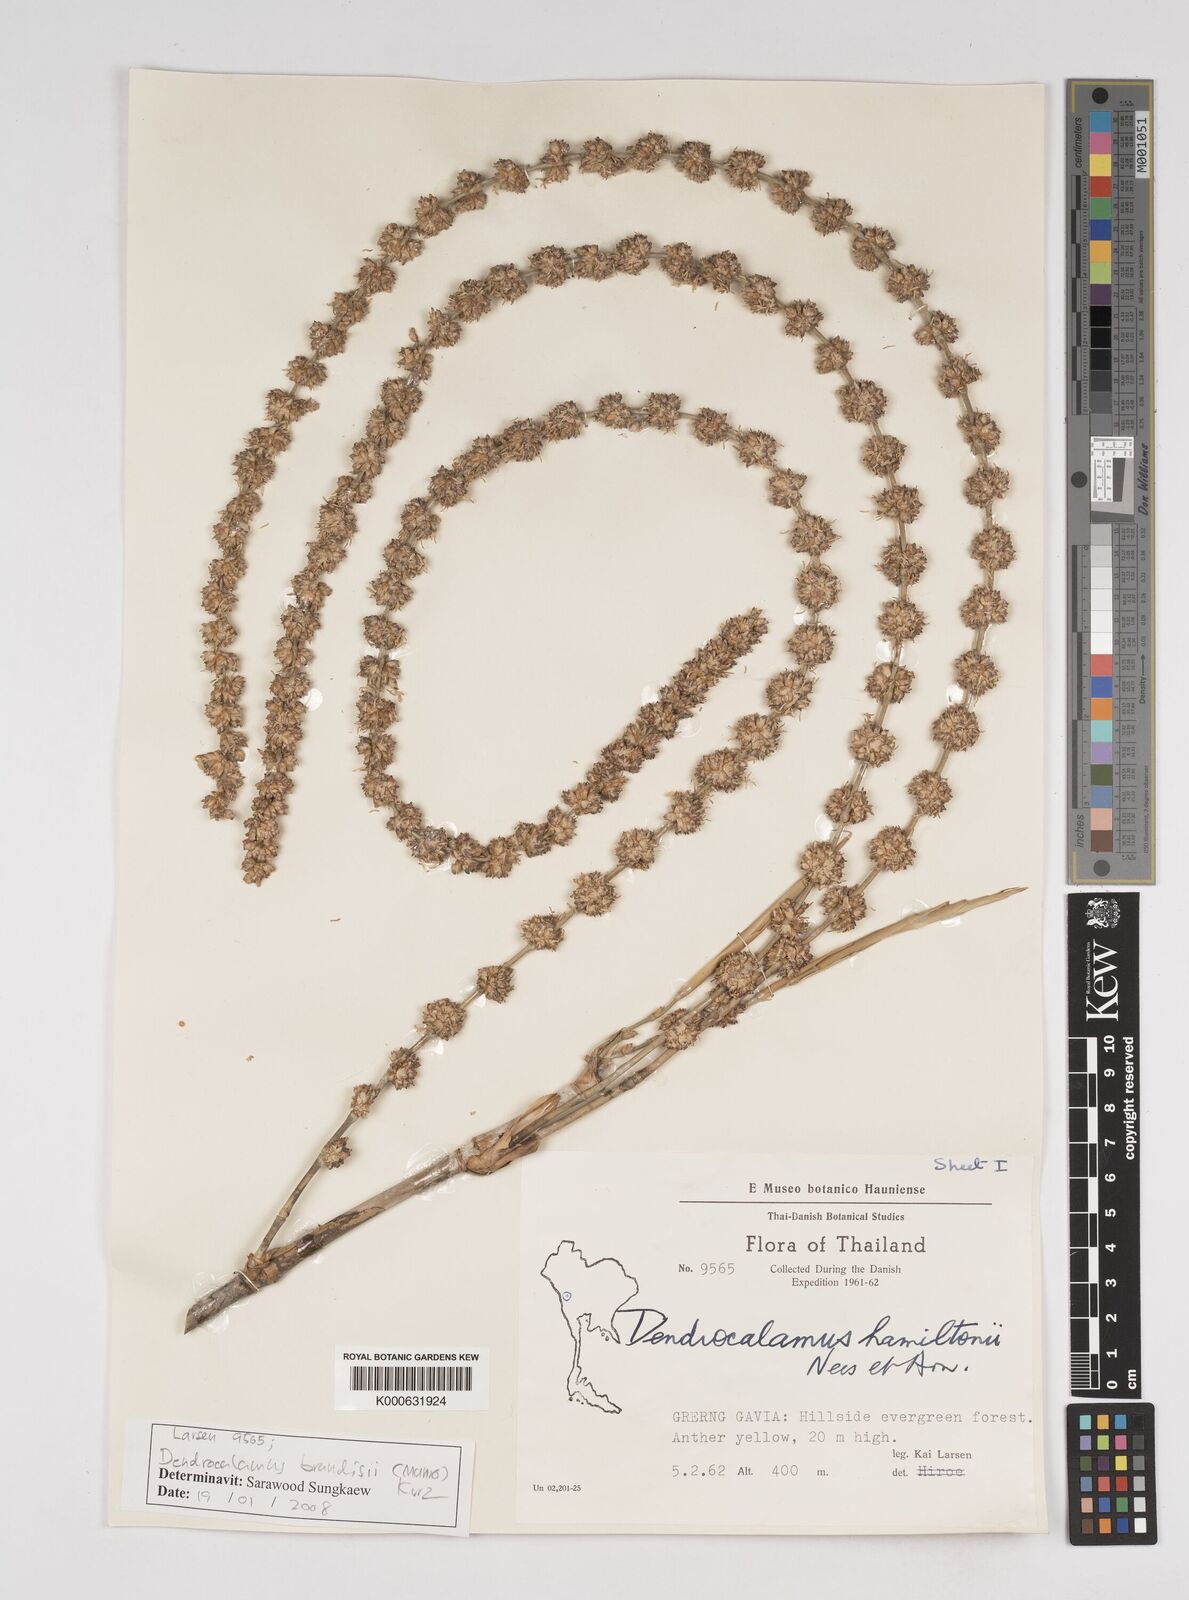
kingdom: Plantae
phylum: Tracheophyta
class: Liliopsida
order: Poales
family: Poaceae
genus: Dendrocalamus
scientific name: Dendrocalamus brandisii
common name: Velvetleaf bamboo
